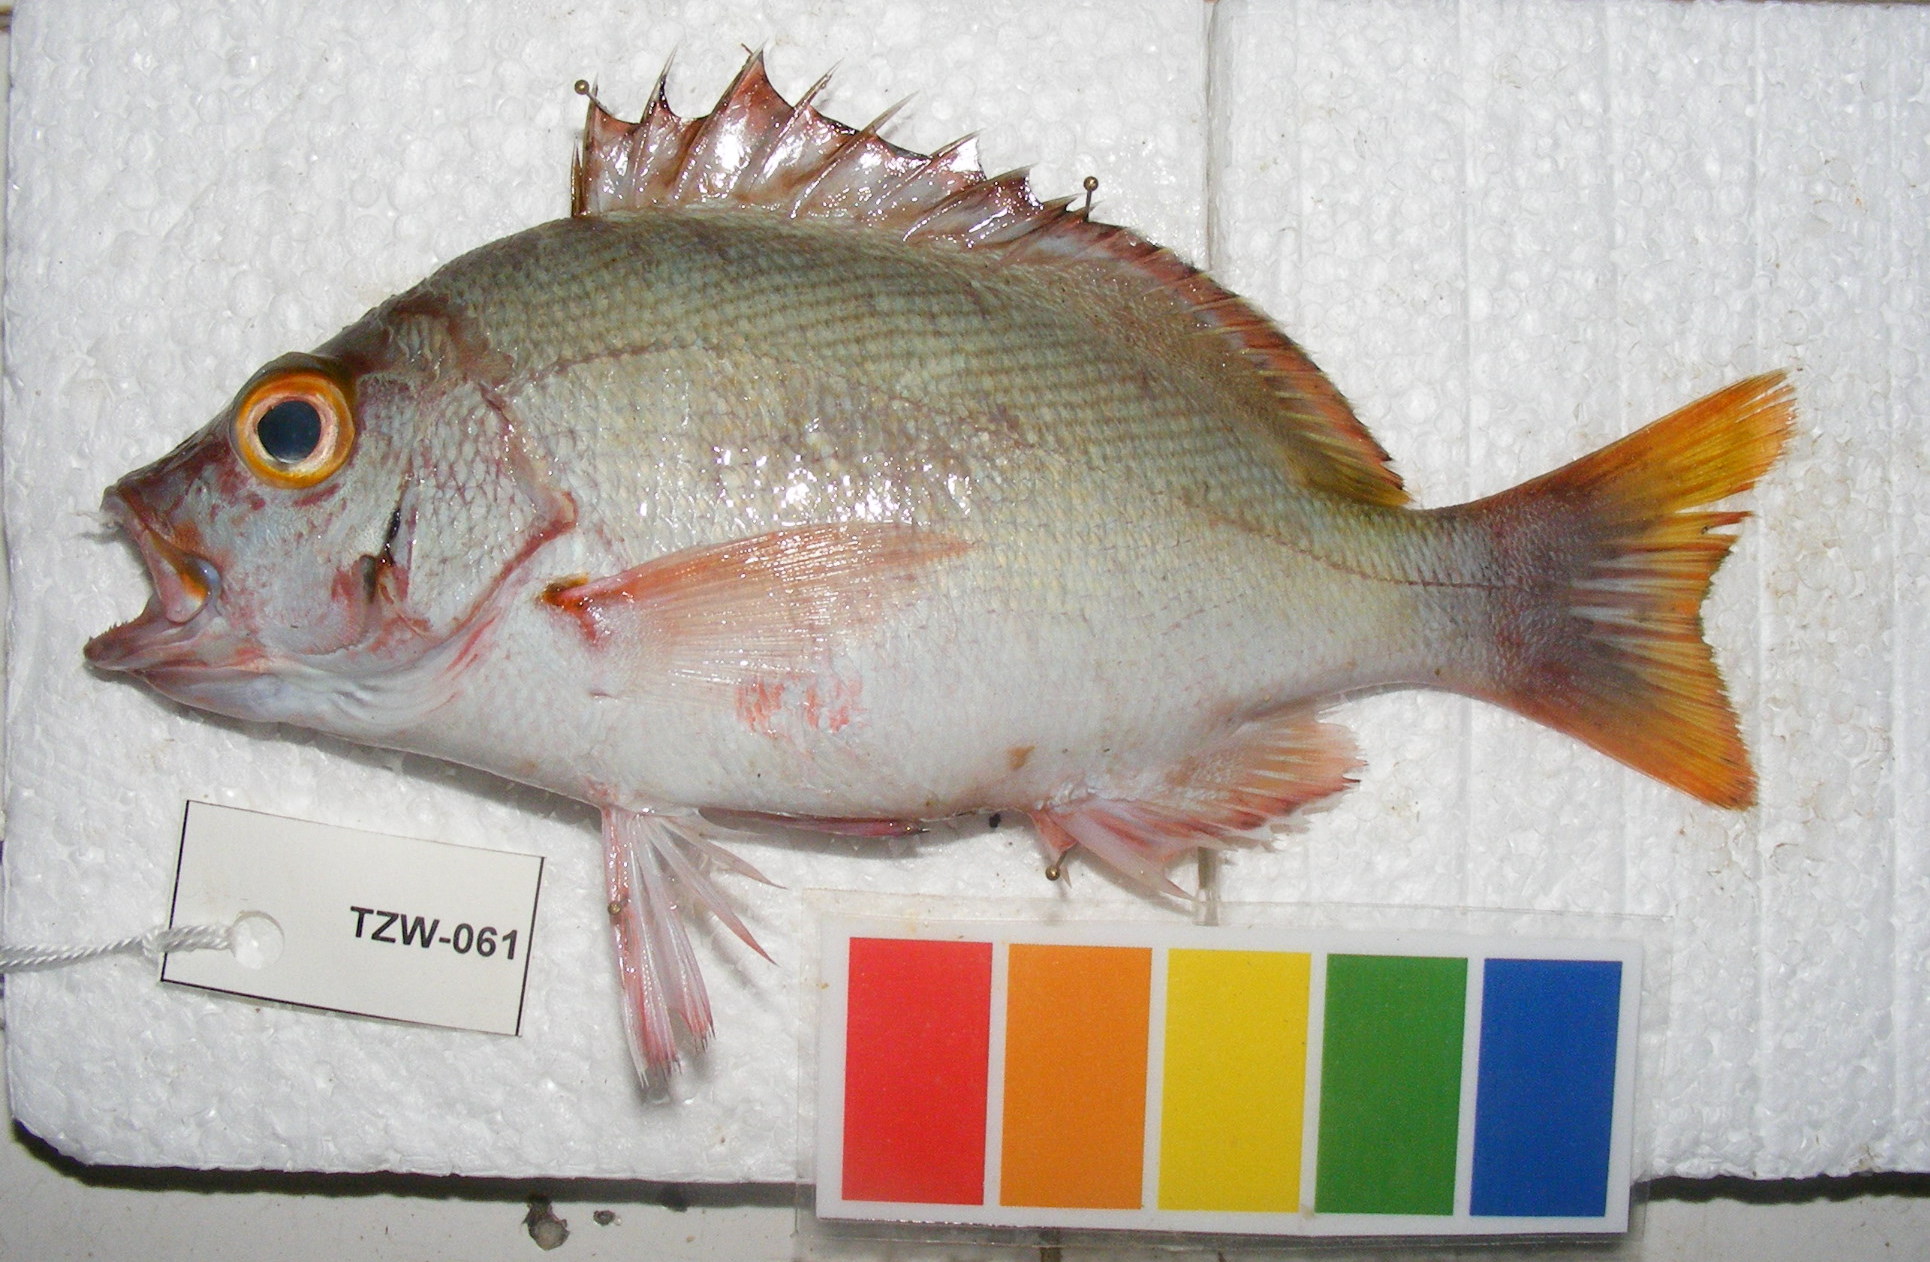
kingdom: Animalia
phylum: Chordata
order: Perciformes
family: Lutjanidae
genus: Lutjanus
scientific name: Lutjanus gibbus
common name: Humpback snapper
